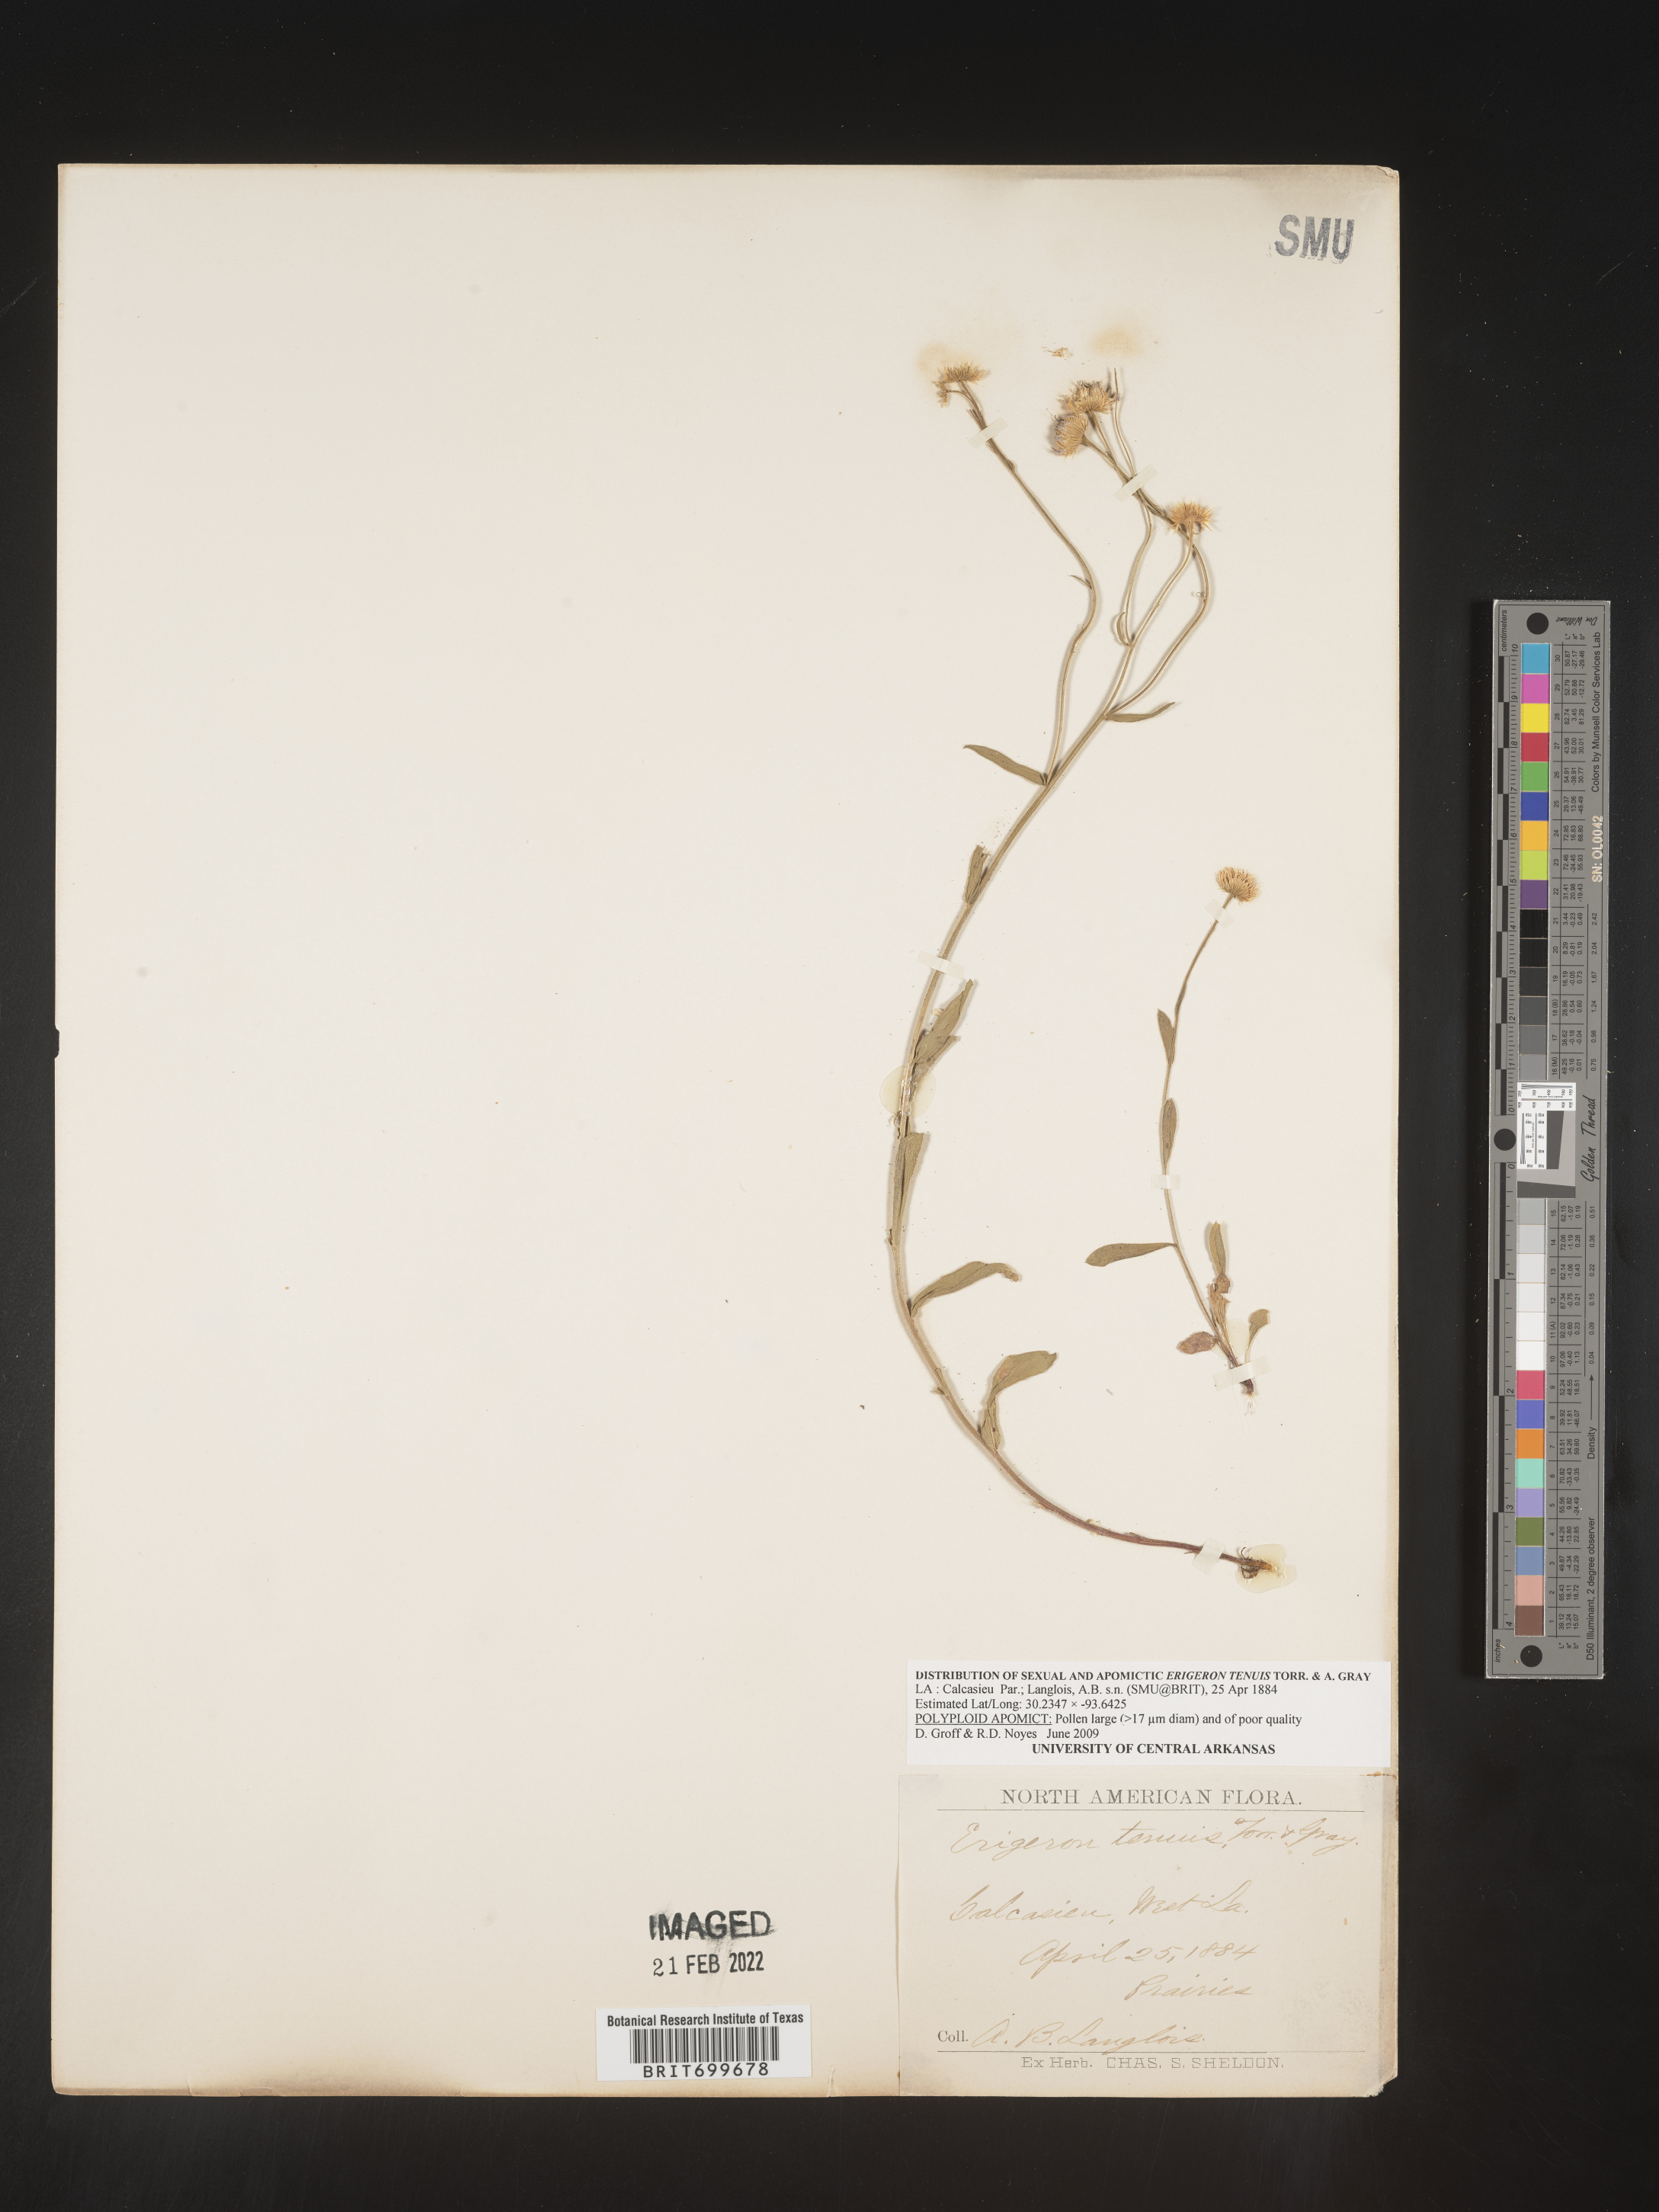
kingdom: Plantae
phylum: Tracheophyta
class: Magnoliopsida
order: Asterales
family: Asteraceae
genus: Erigeron
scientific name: Erigeron tenuis
